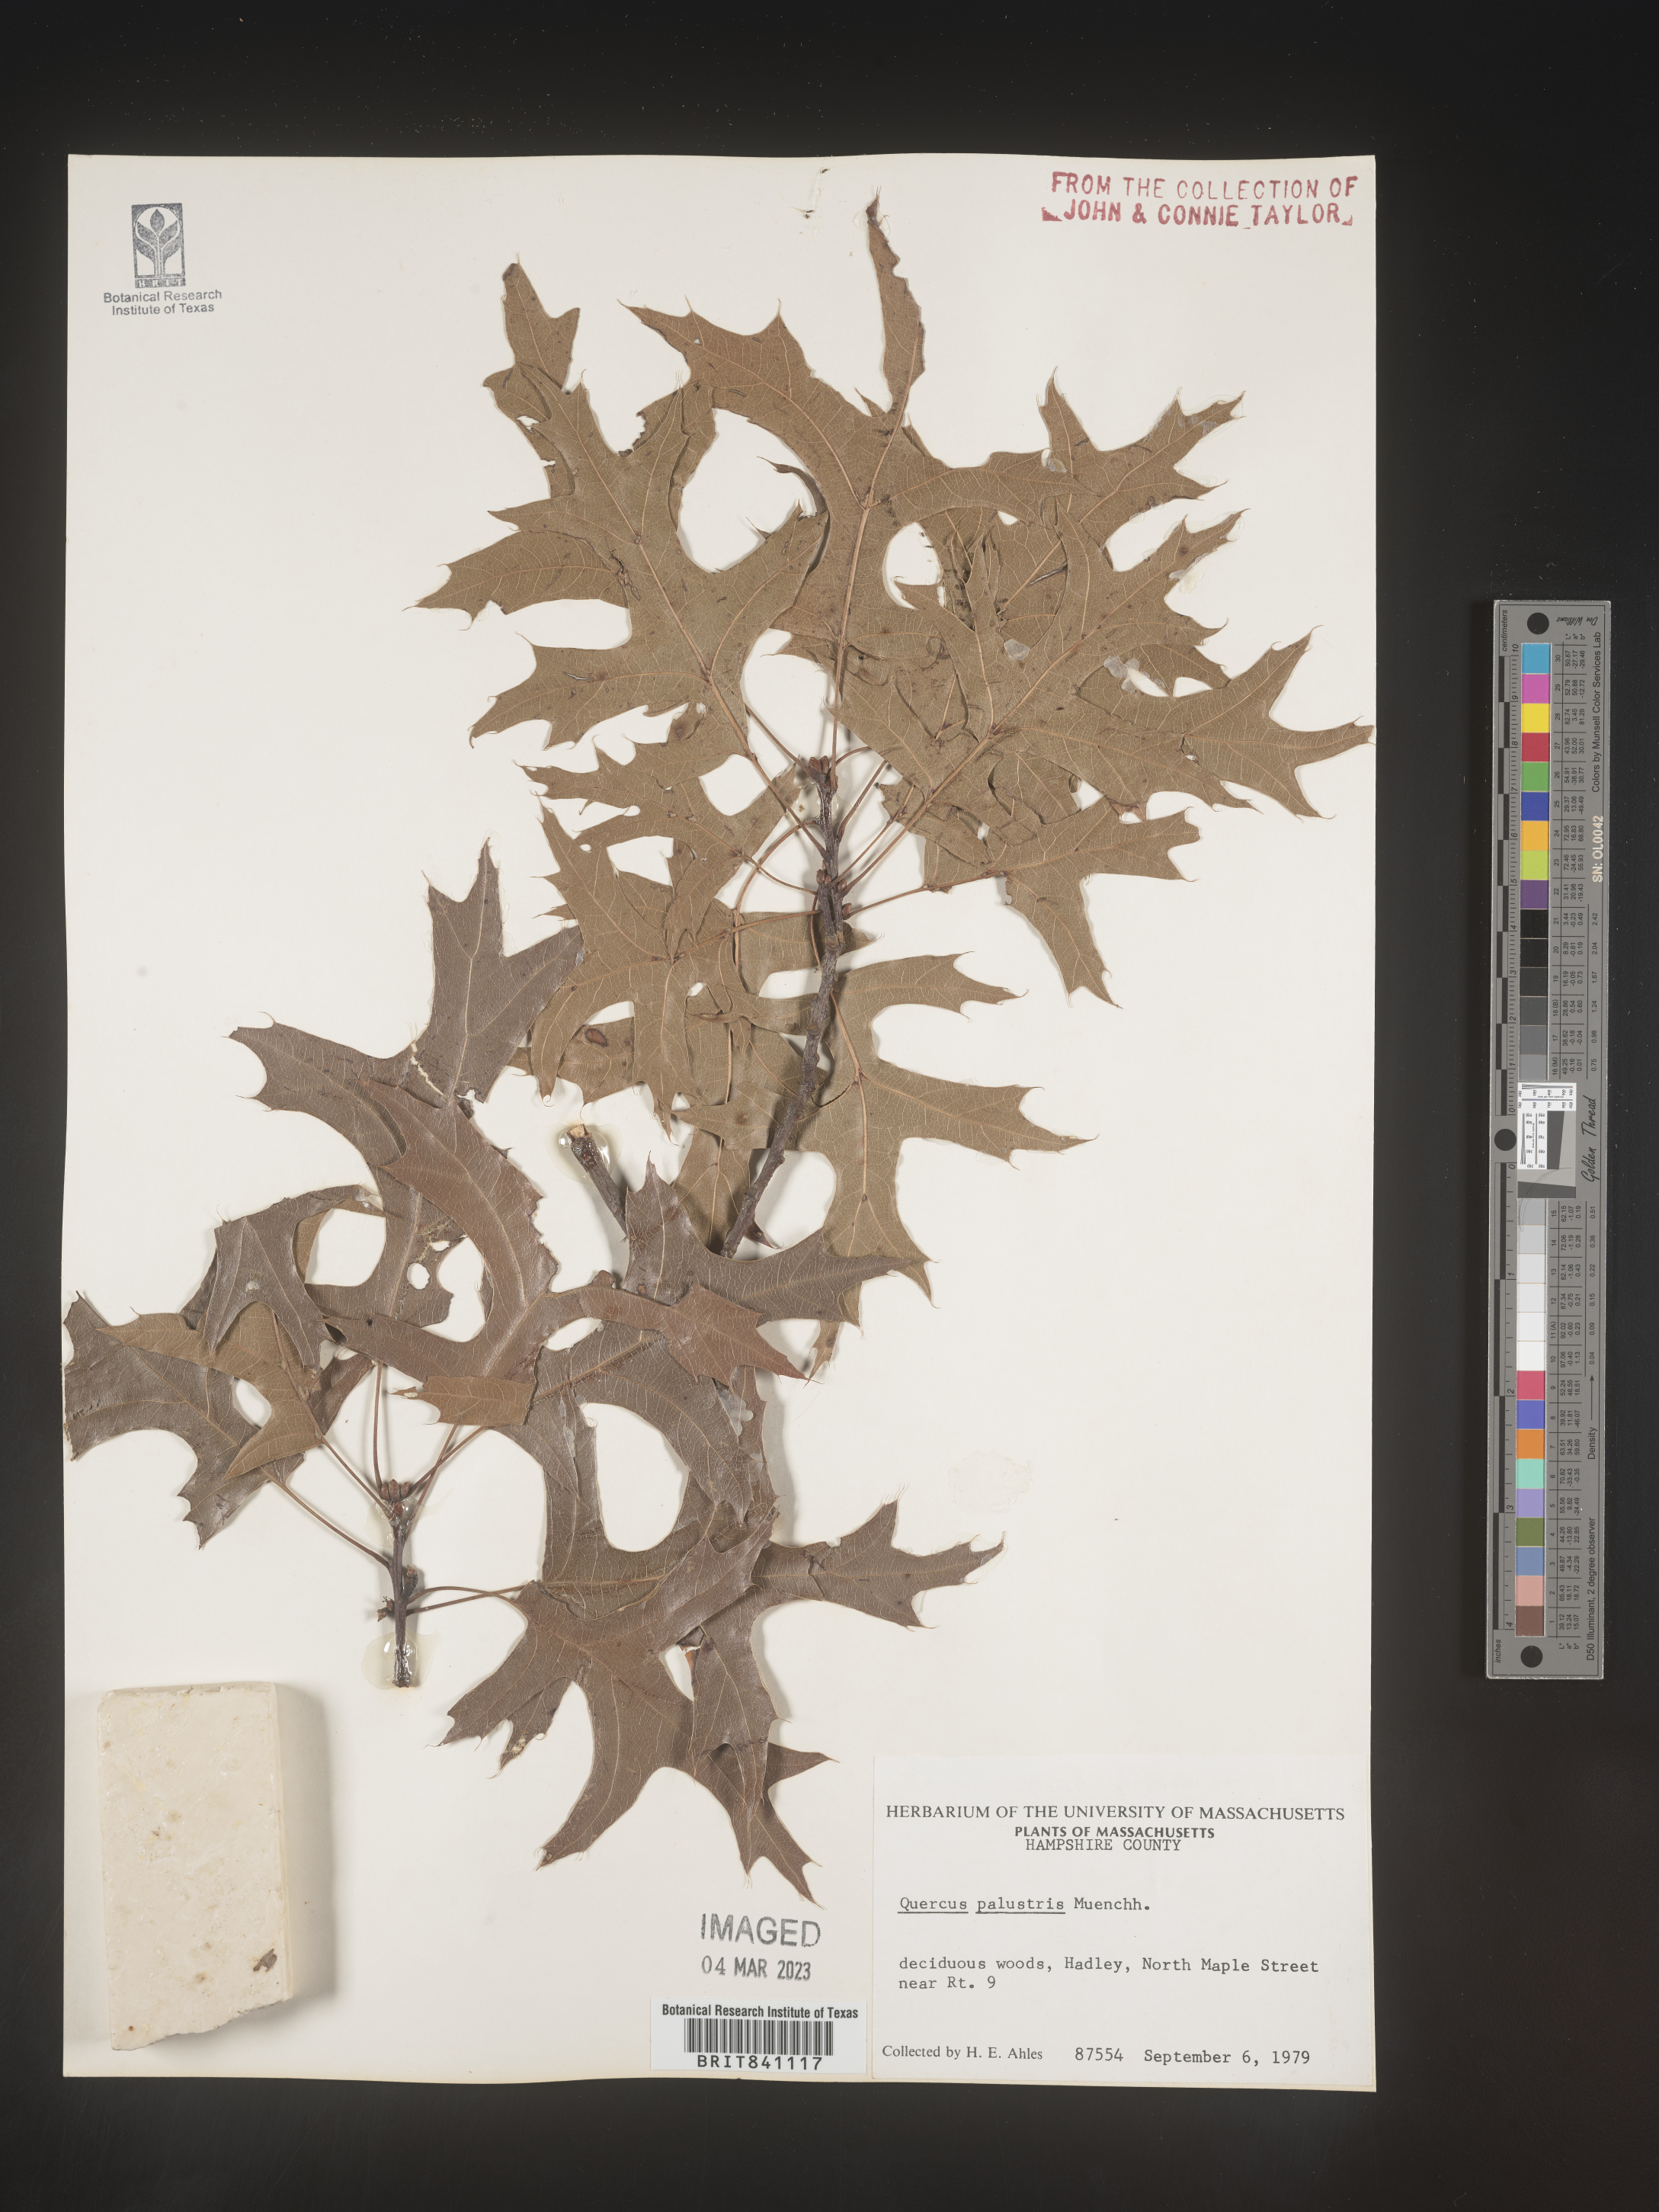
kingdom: Plantae
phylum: Tracheophyta
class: Magnoliopsida
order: Fagales
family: Fagaceae
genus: Quercus
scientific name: Quercus palustris
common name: Pin oak
